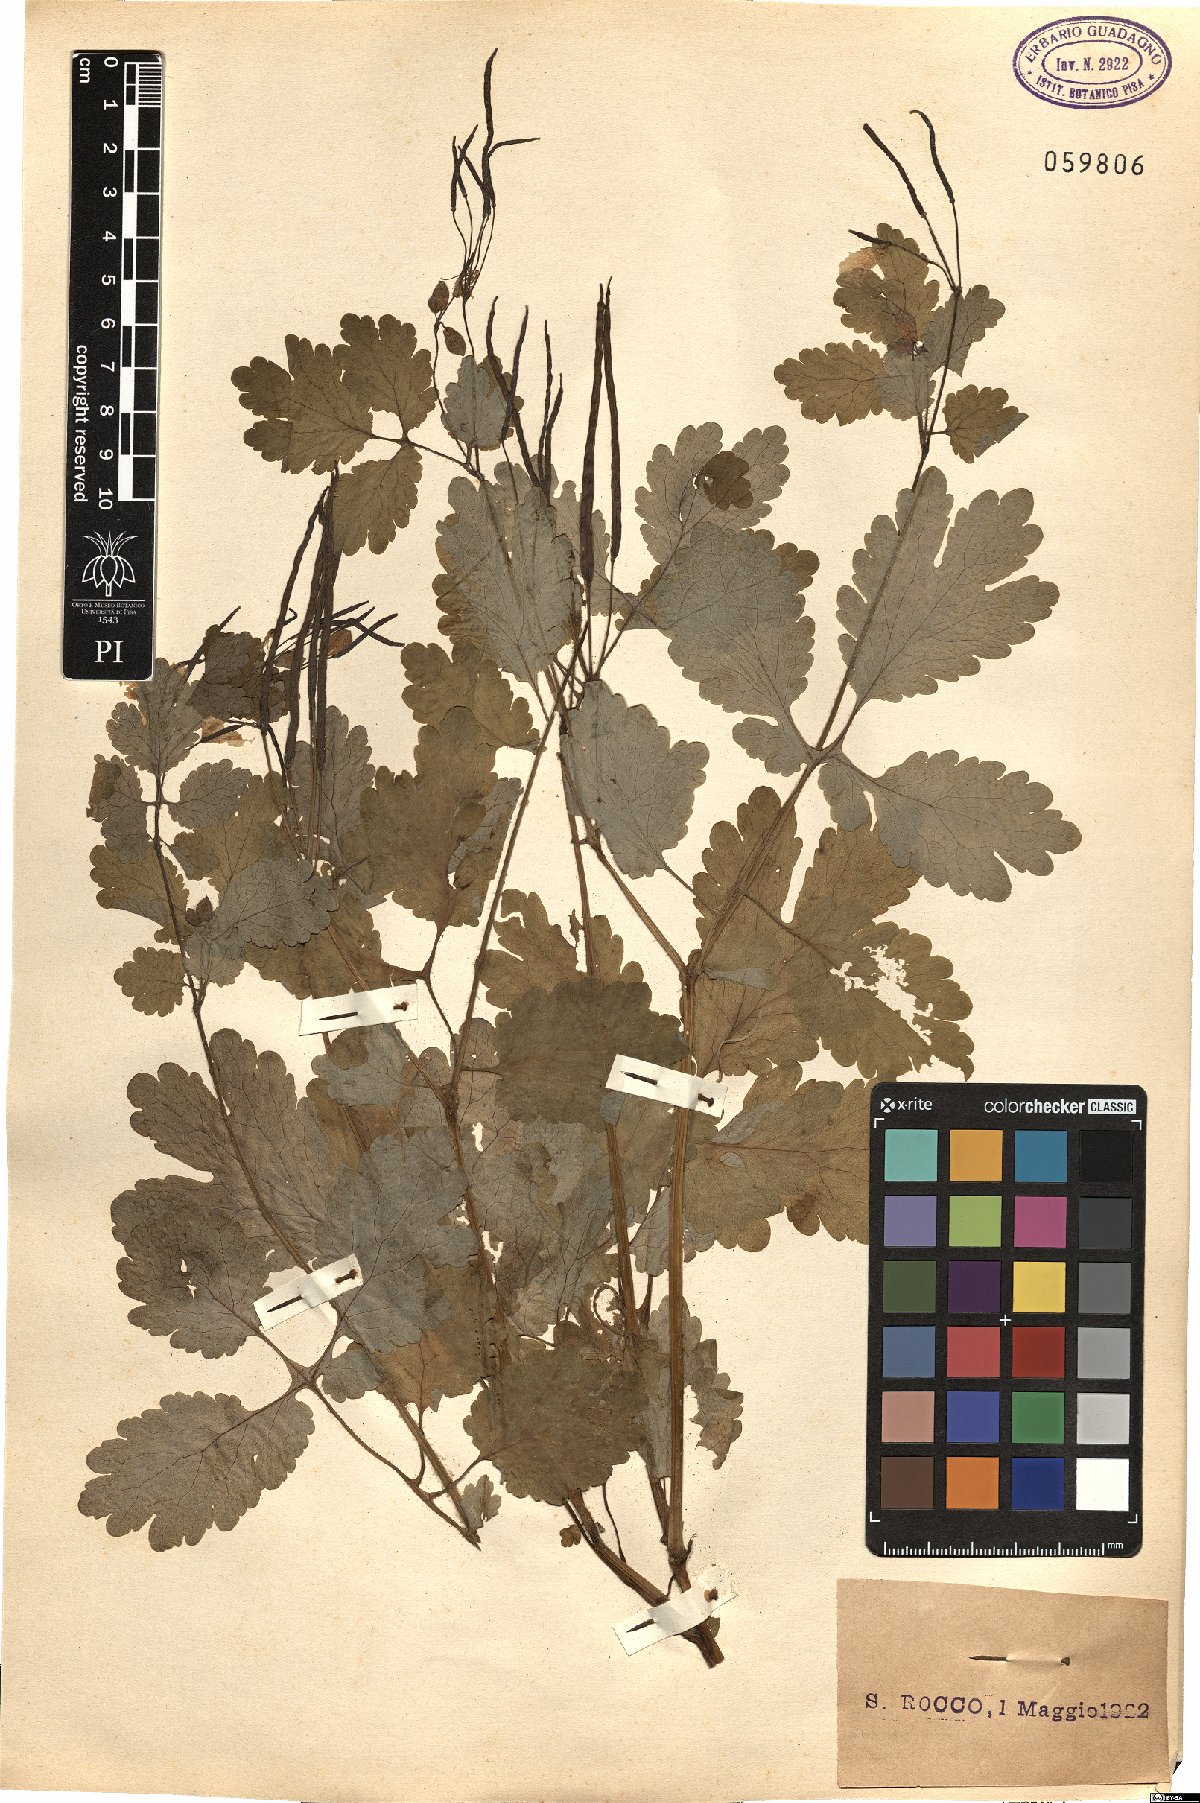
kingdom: Plantae
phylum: Tracheophyta
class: Magnoliopsida
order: Ranunculales
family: Papaveraceae
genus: Chelidonium
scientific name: Chelidonium majus
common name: Greater celandine
